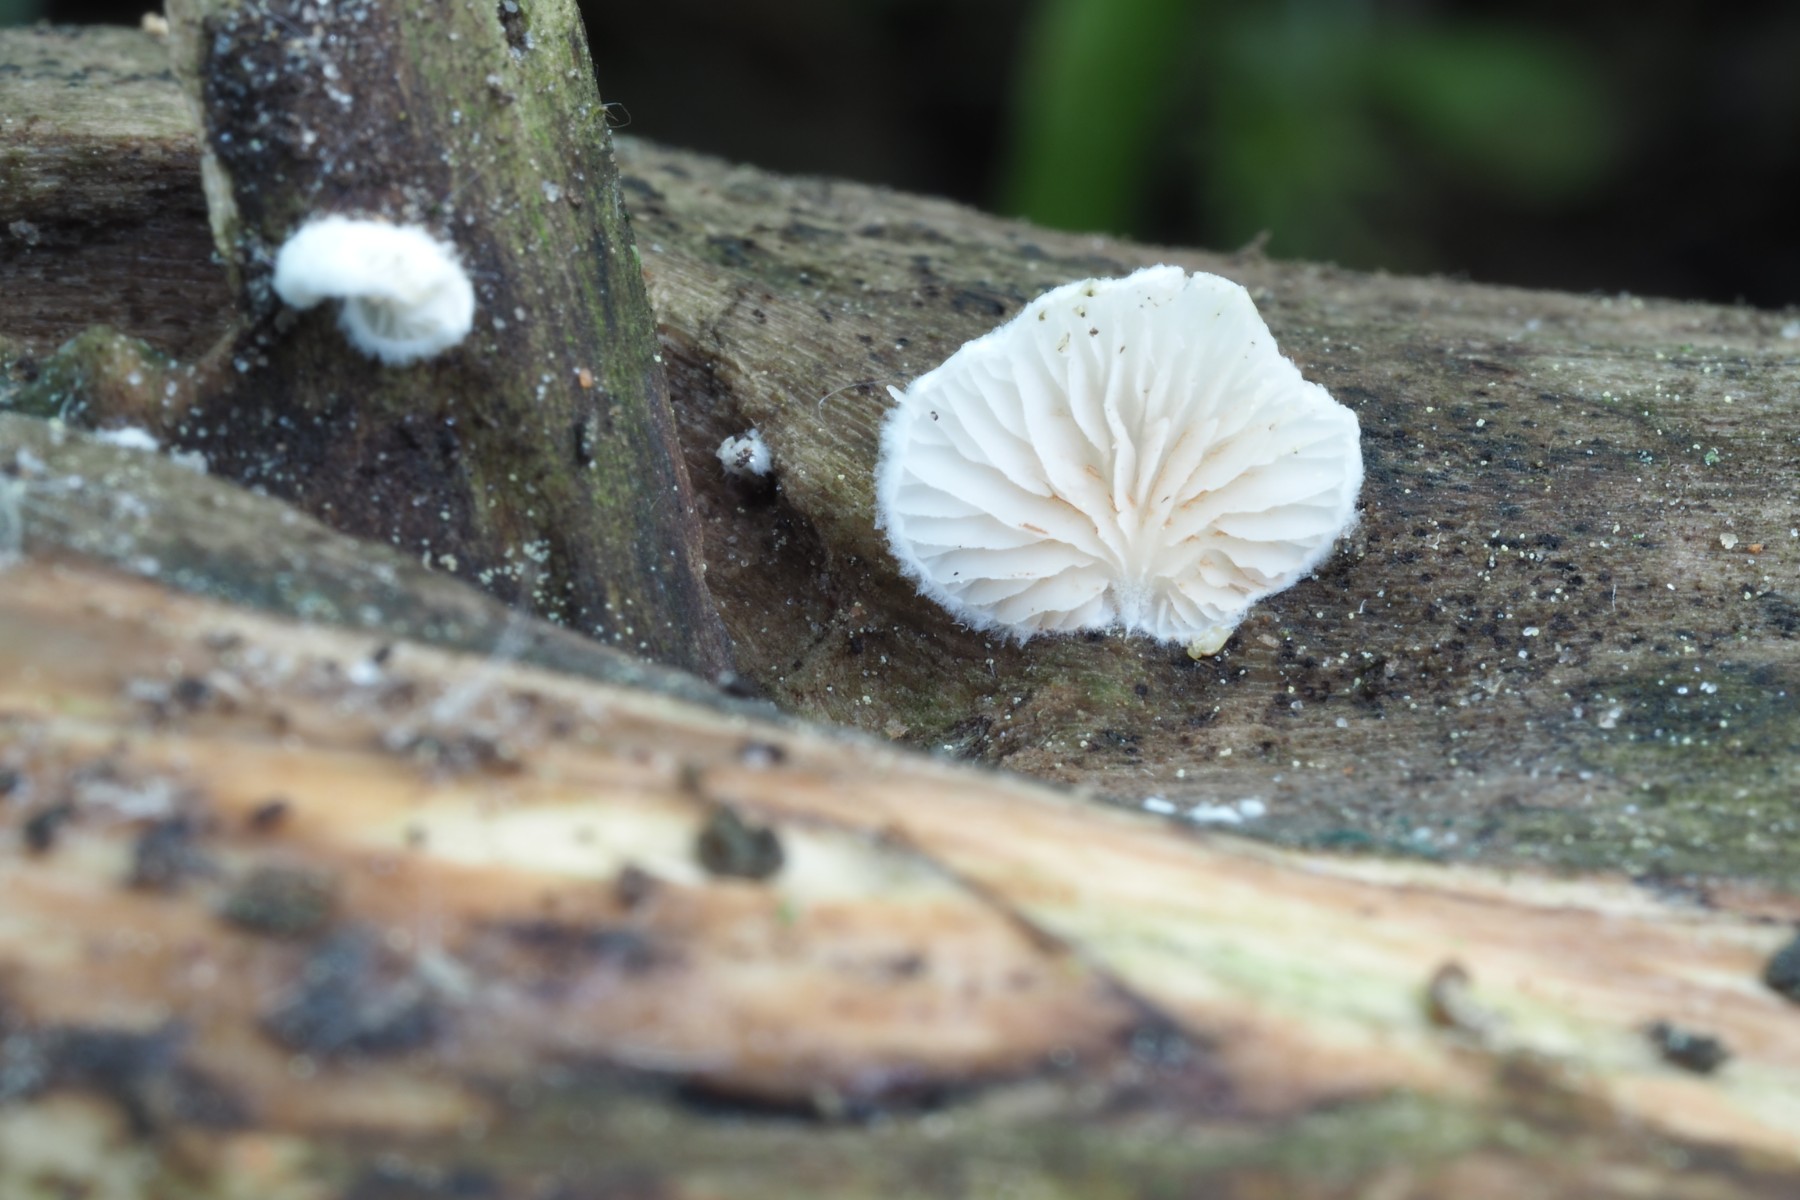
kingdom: Fungi
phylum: Basidiomycota
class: Agaricomycetes
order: Agaricales
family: Crepidotaceae
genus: Crepidotus
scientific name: Crepidotus cesatii
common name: almindelig muslingesvamp
